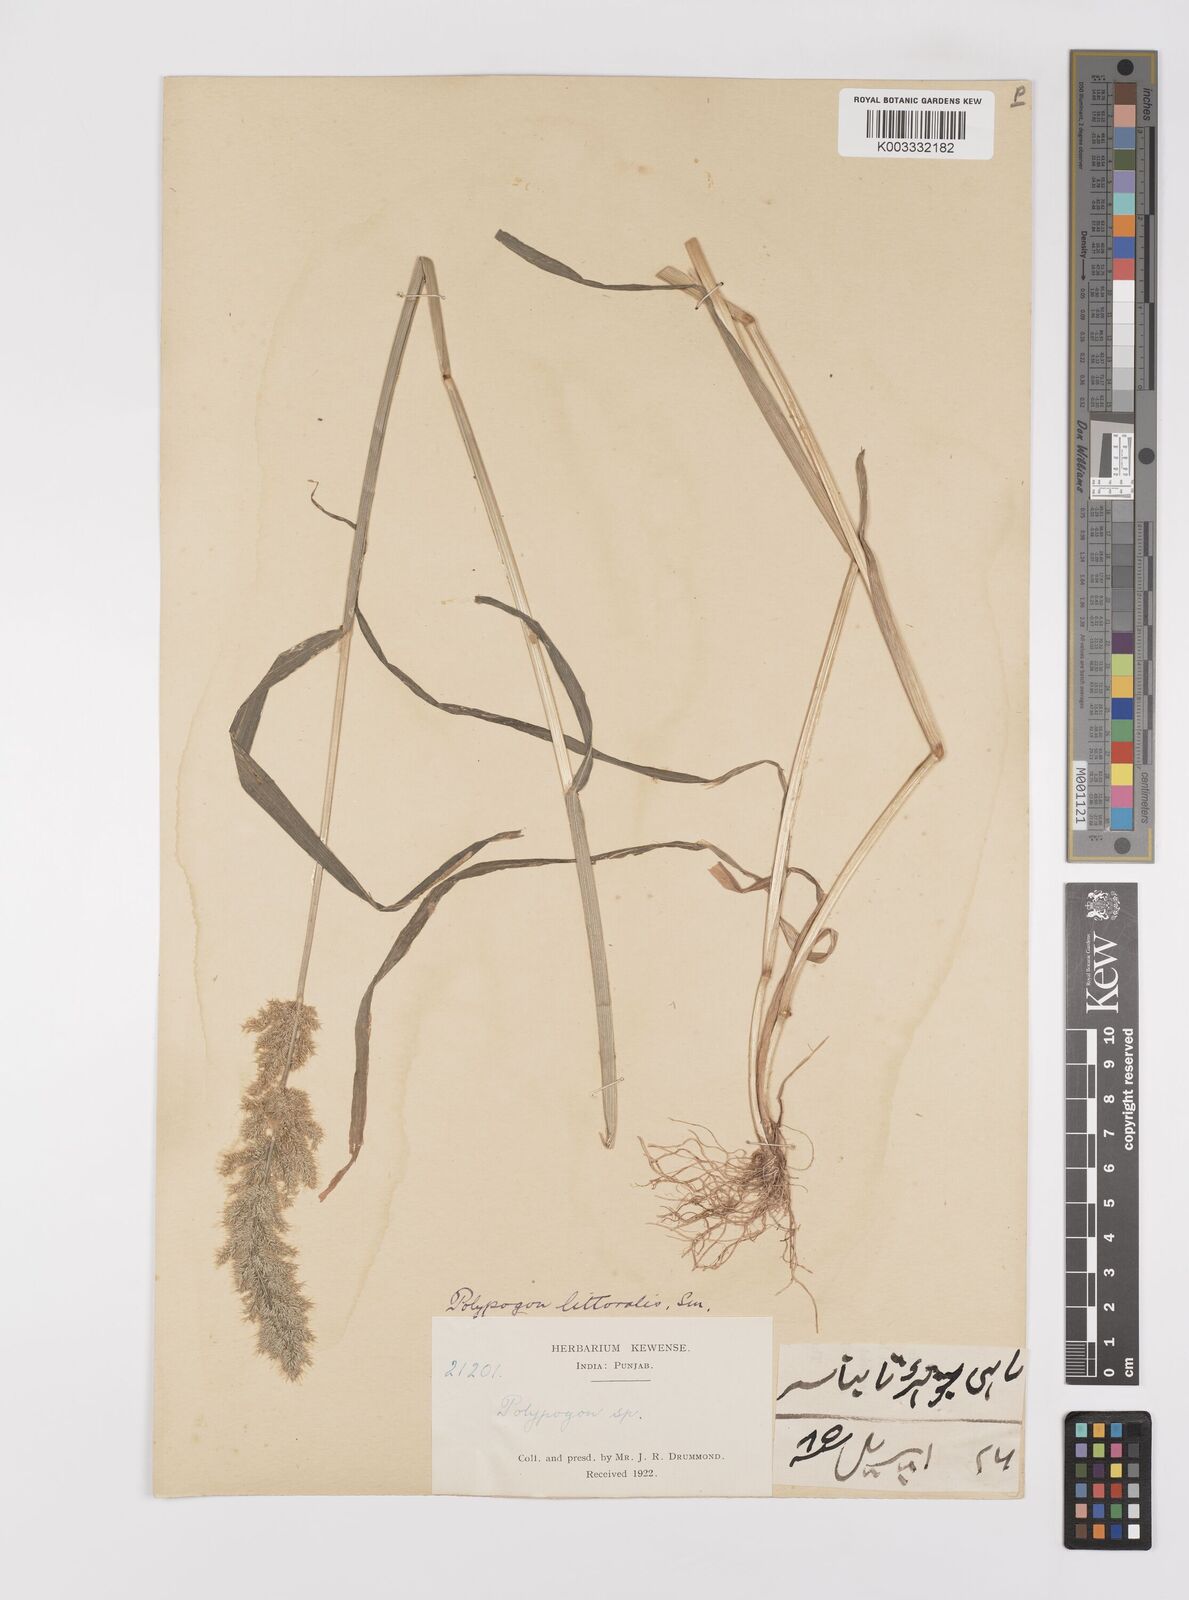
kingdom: Plantae
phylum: Tracheophyta
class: Liliopsida
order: Poales
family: Poaceae
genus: Polypogon
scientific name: Polypogon fugax
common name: Asia minor bluegrass
